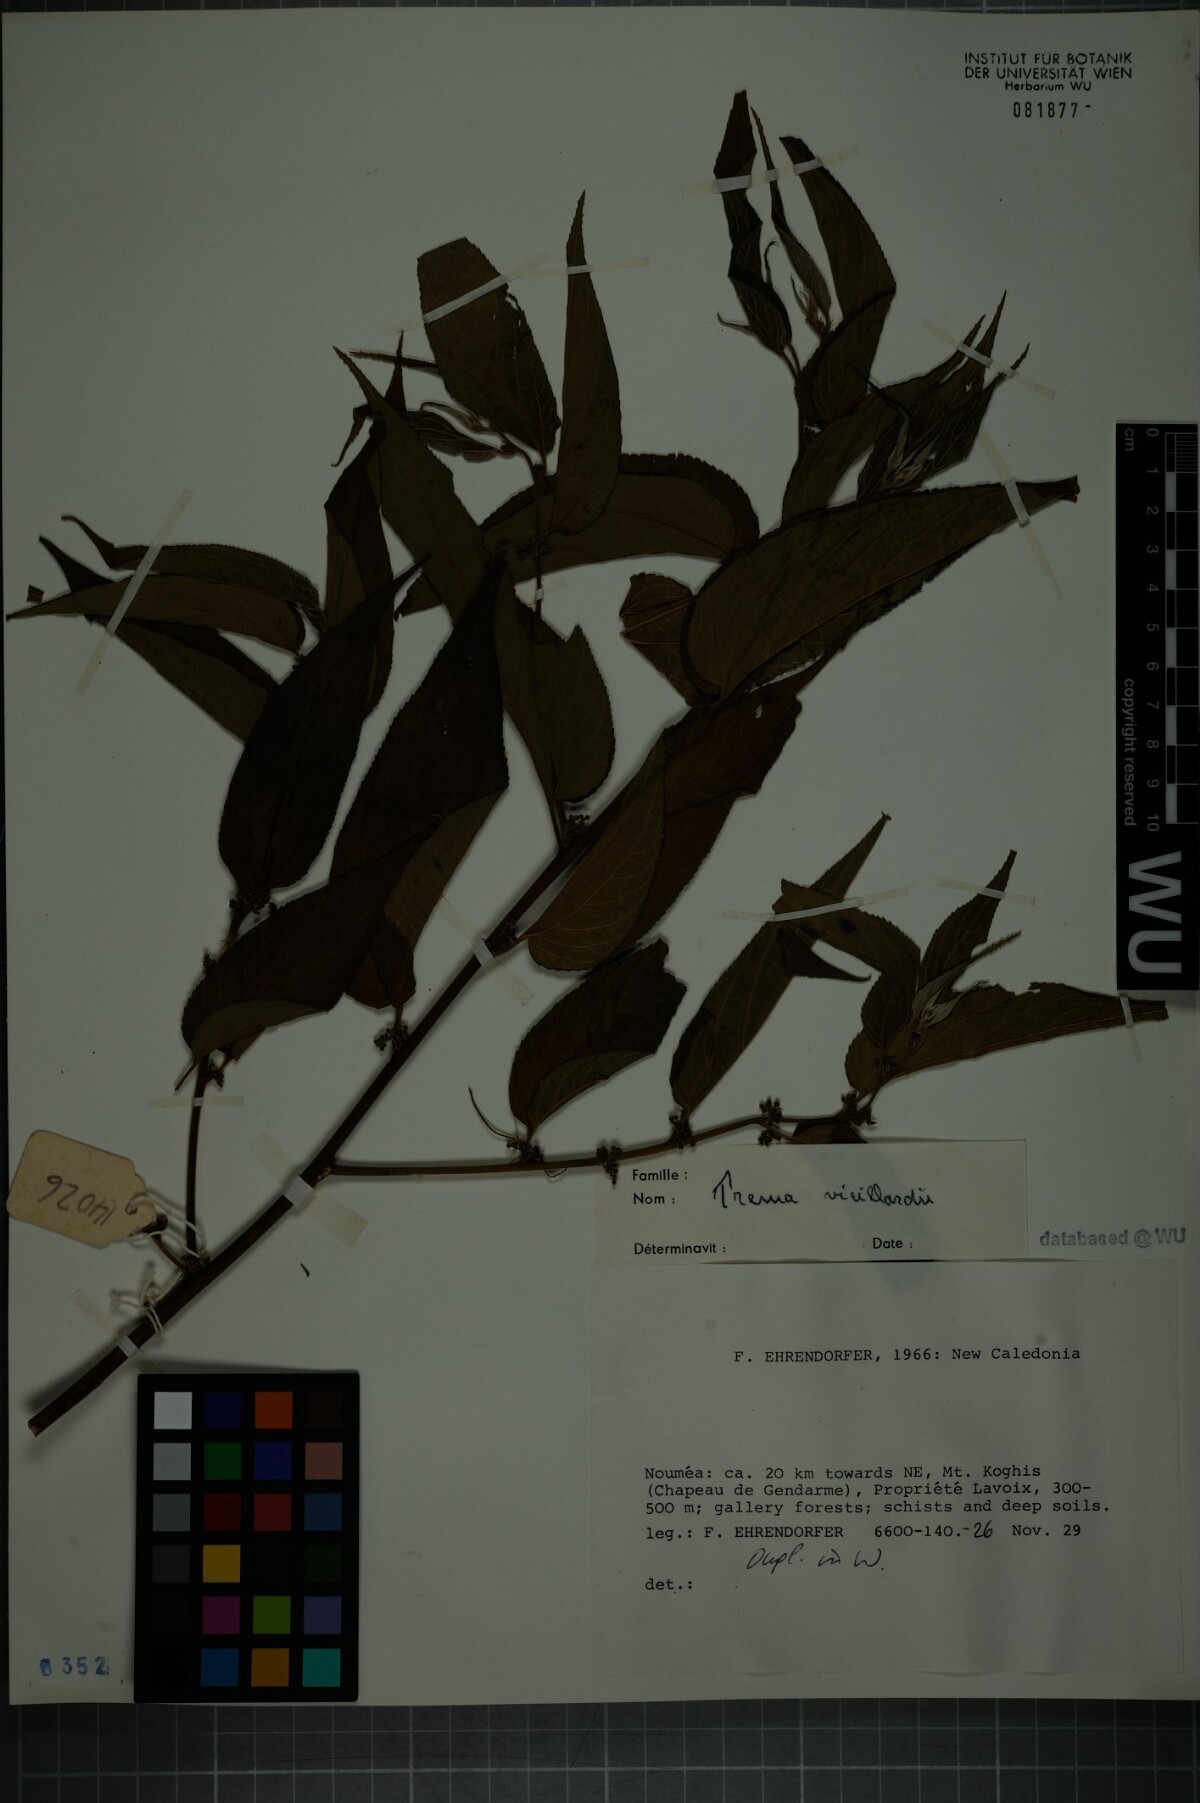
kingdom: Plantae
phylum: Tracheophyta
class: Magnoliopsida
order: Rosales
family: Cannabaceae
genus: Trema
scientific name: Trema cannabina
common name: Poison-peach
